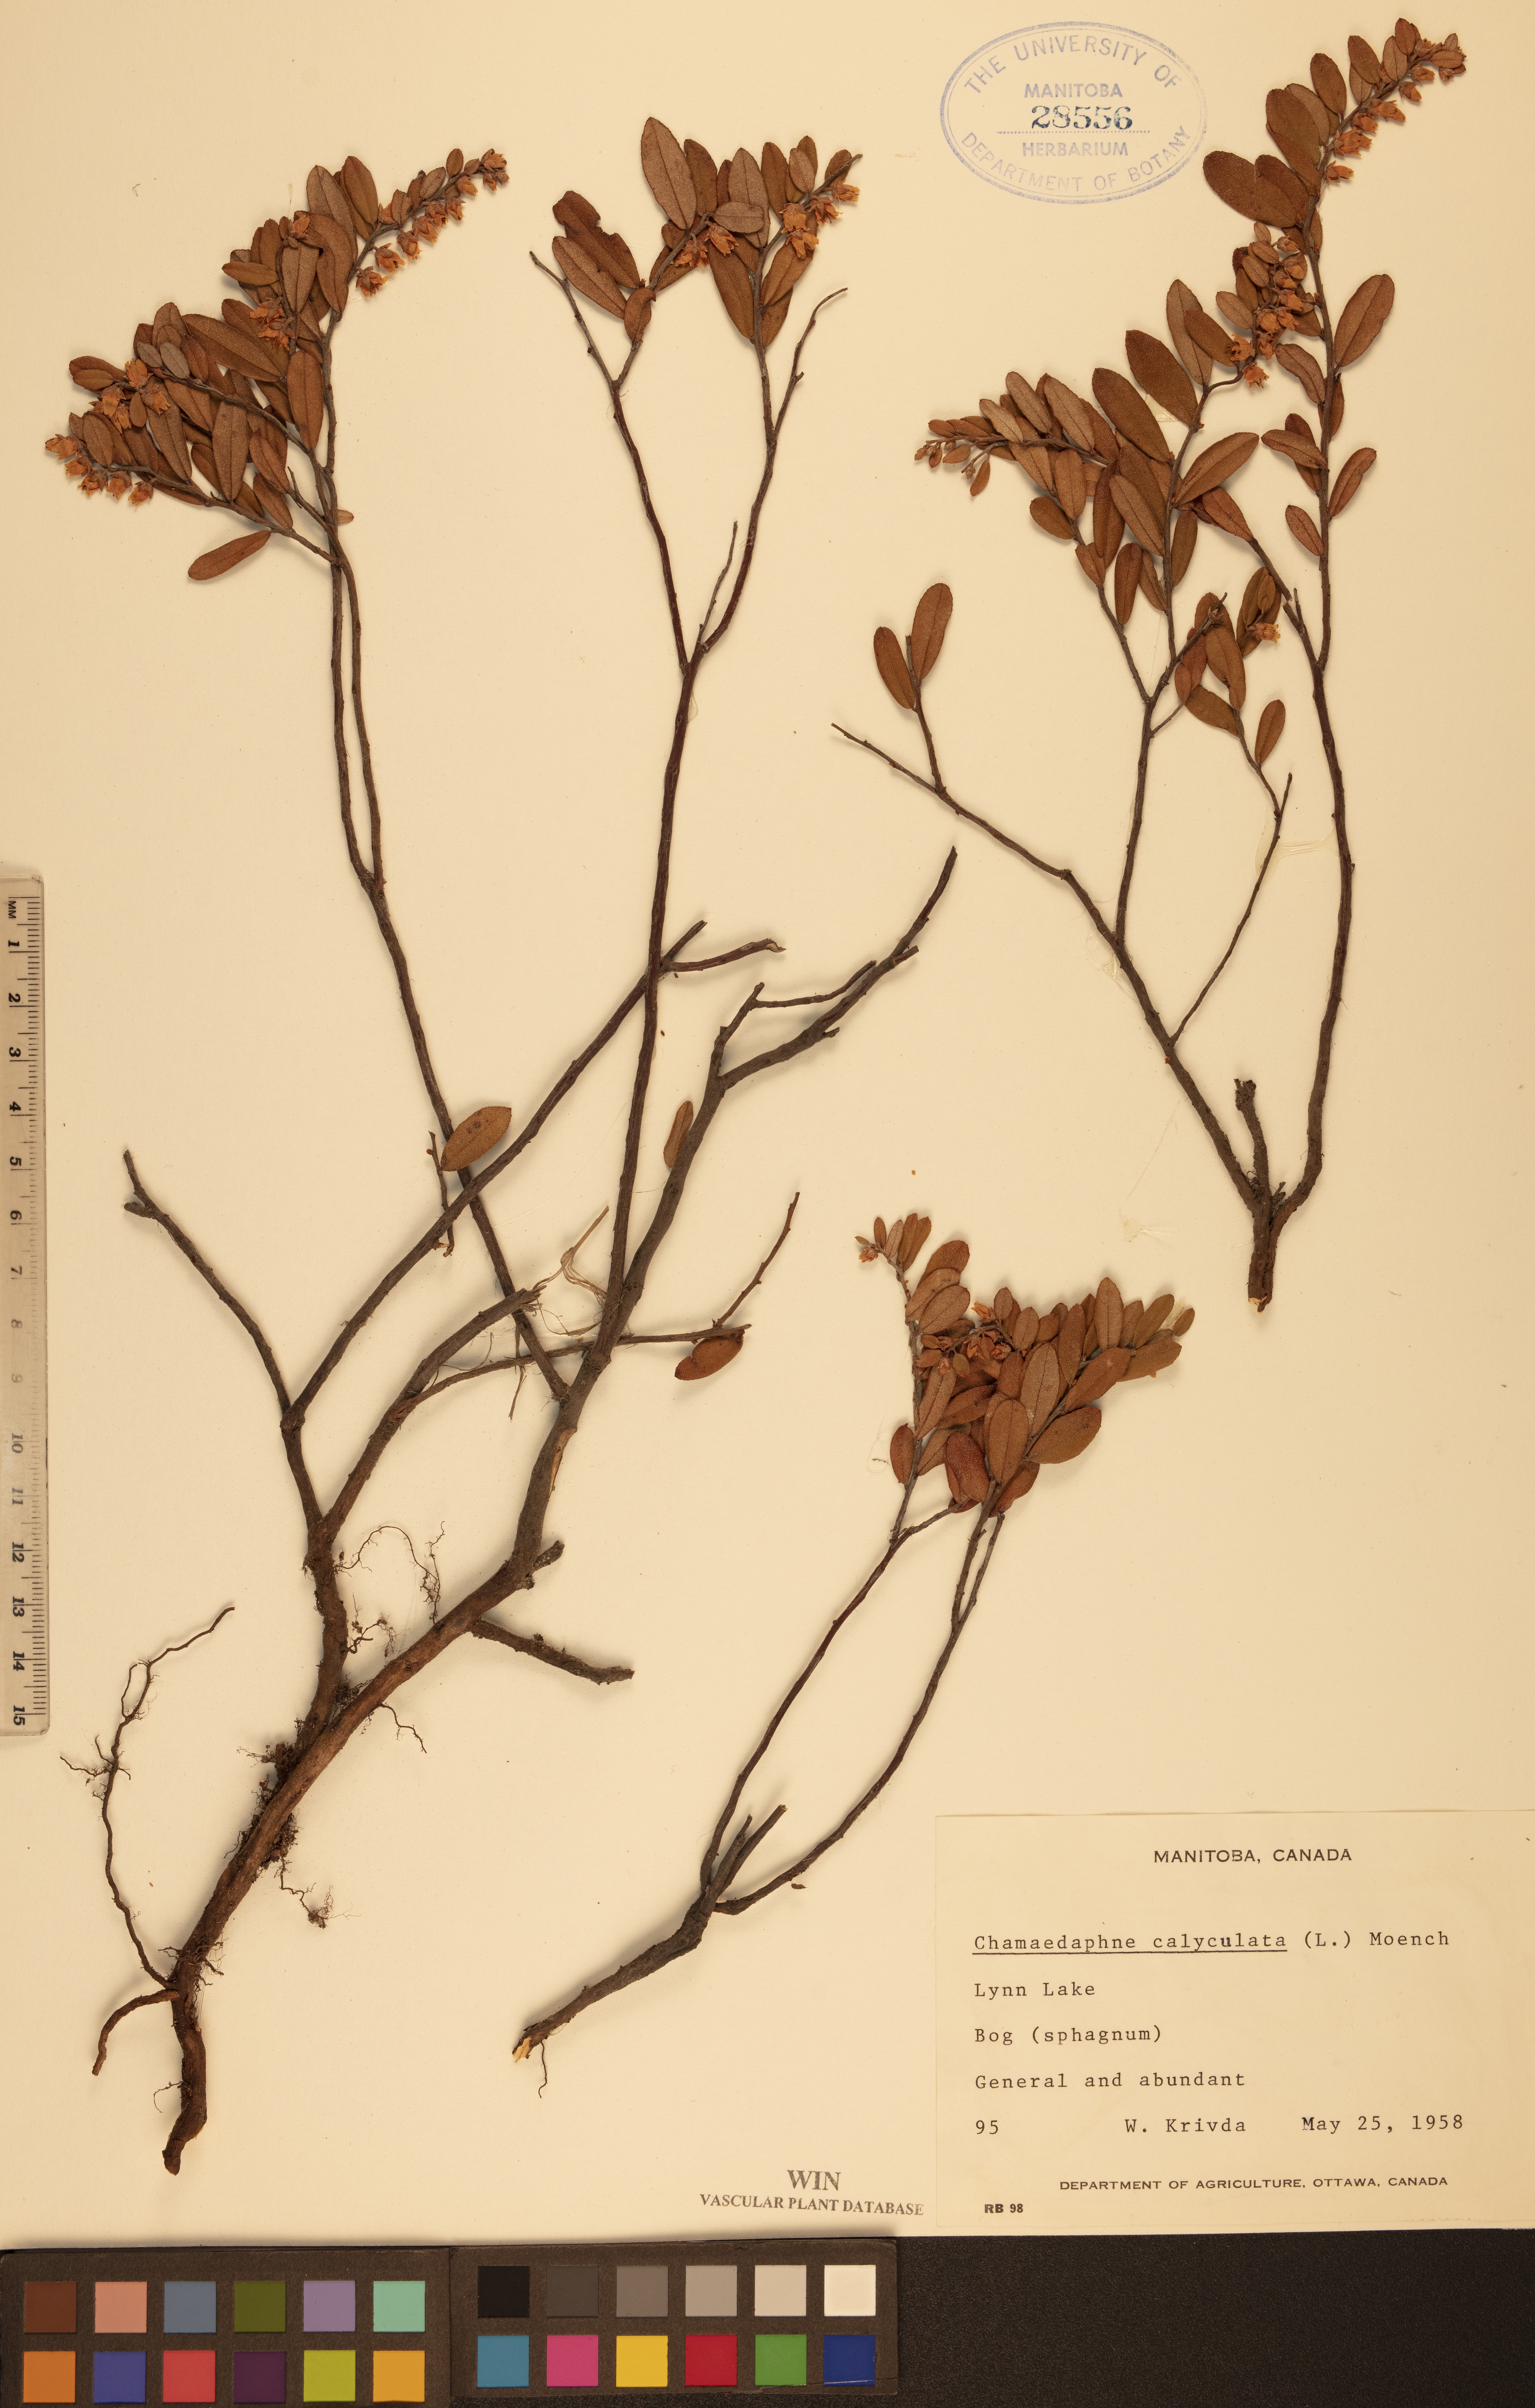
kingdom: Plantae
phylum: Tracheophyta
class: Magnoliopsida
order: Ericales
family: Ericaceae
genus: Chamaedaphne
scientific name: Chamaedaphne calyculata
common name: Leatherleaf
